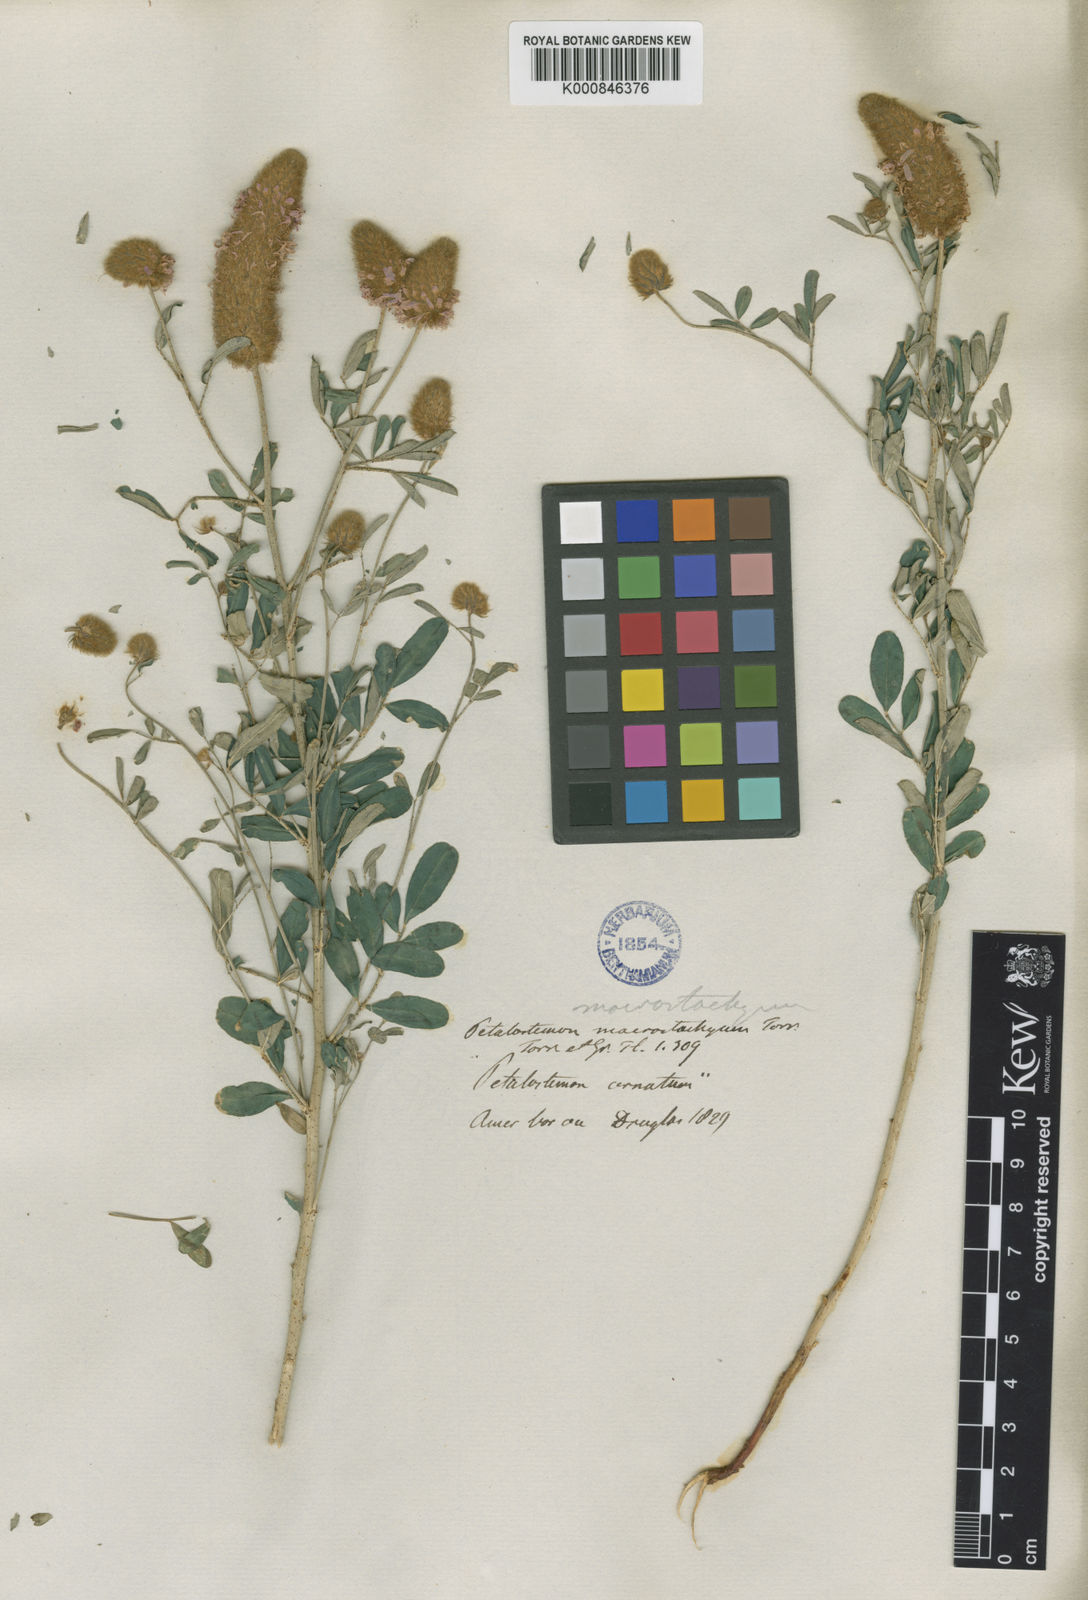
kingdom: Plantae
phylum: Tracheophyta
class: Magnoliopsida
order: Fabales
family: Fabaceae
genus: Dalea
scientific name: Dalea ornata
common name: Blue mountain prairie-clover
